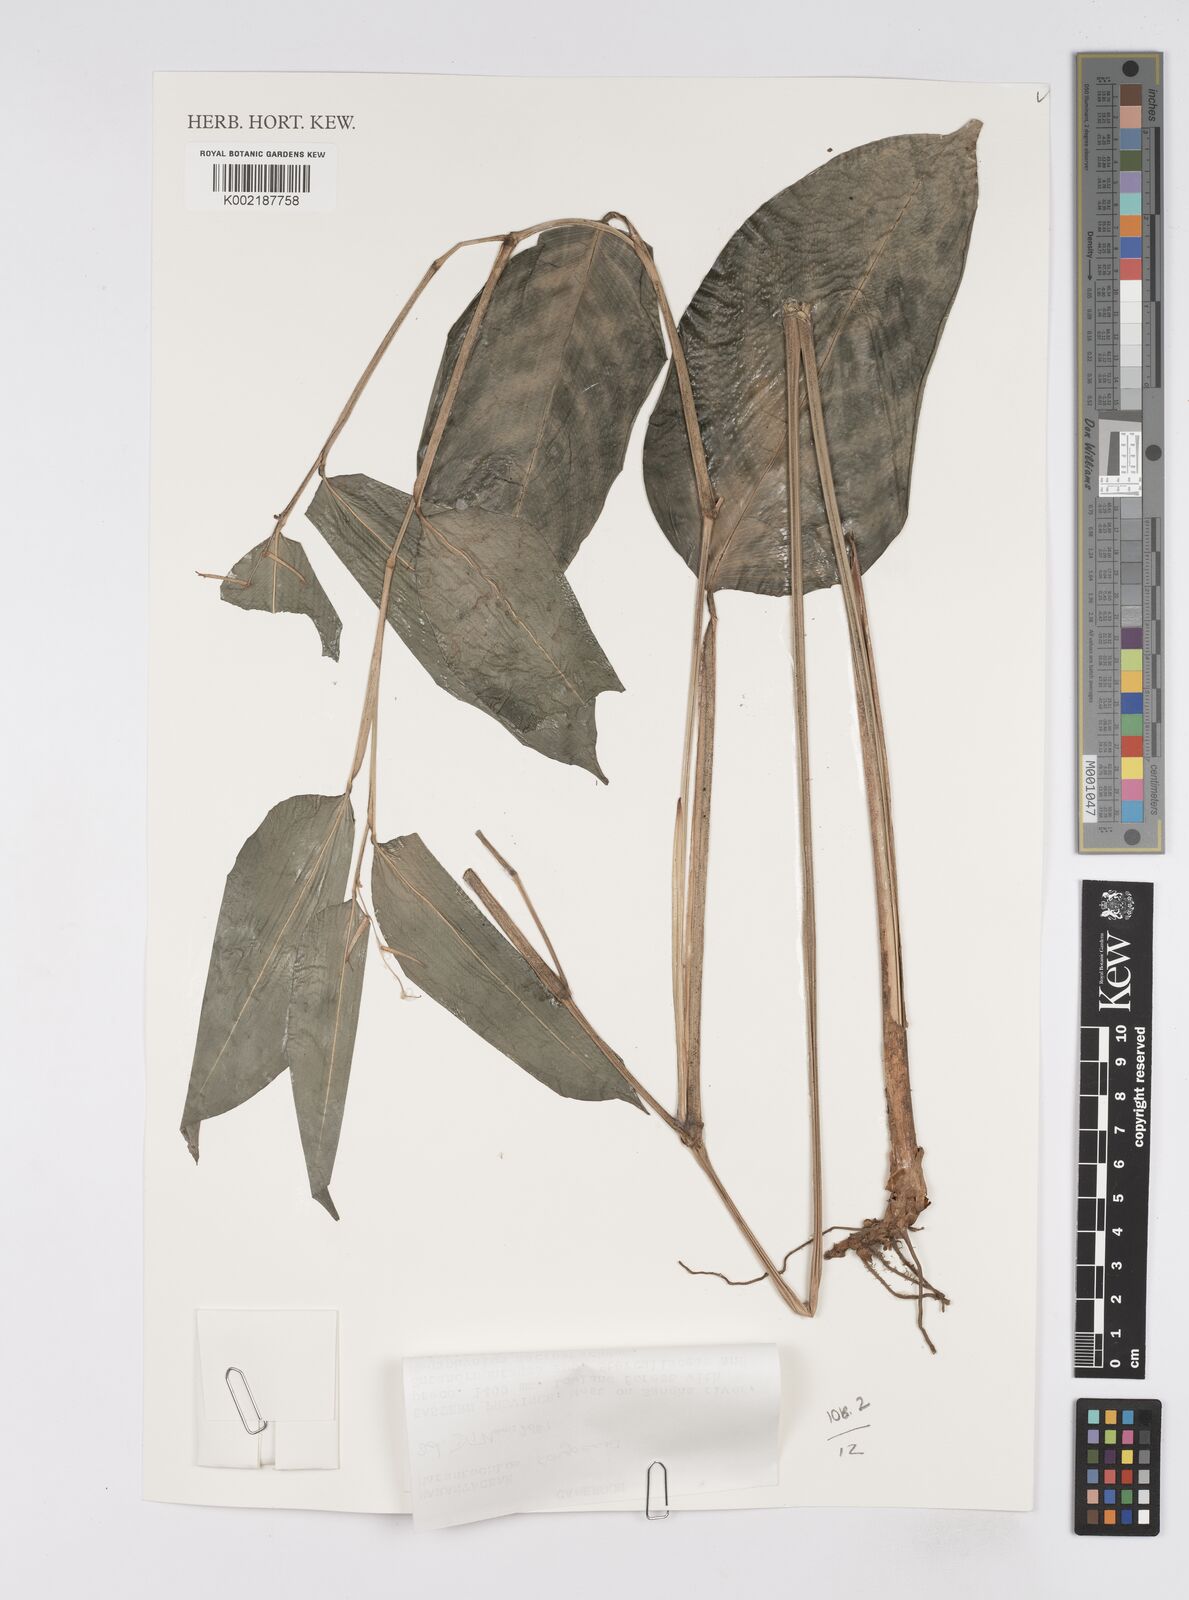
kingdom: Plantae
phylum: Tracheophyta
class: Liliopsida
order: Zingiberales
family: Marantaceae
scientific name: Marantaceae
